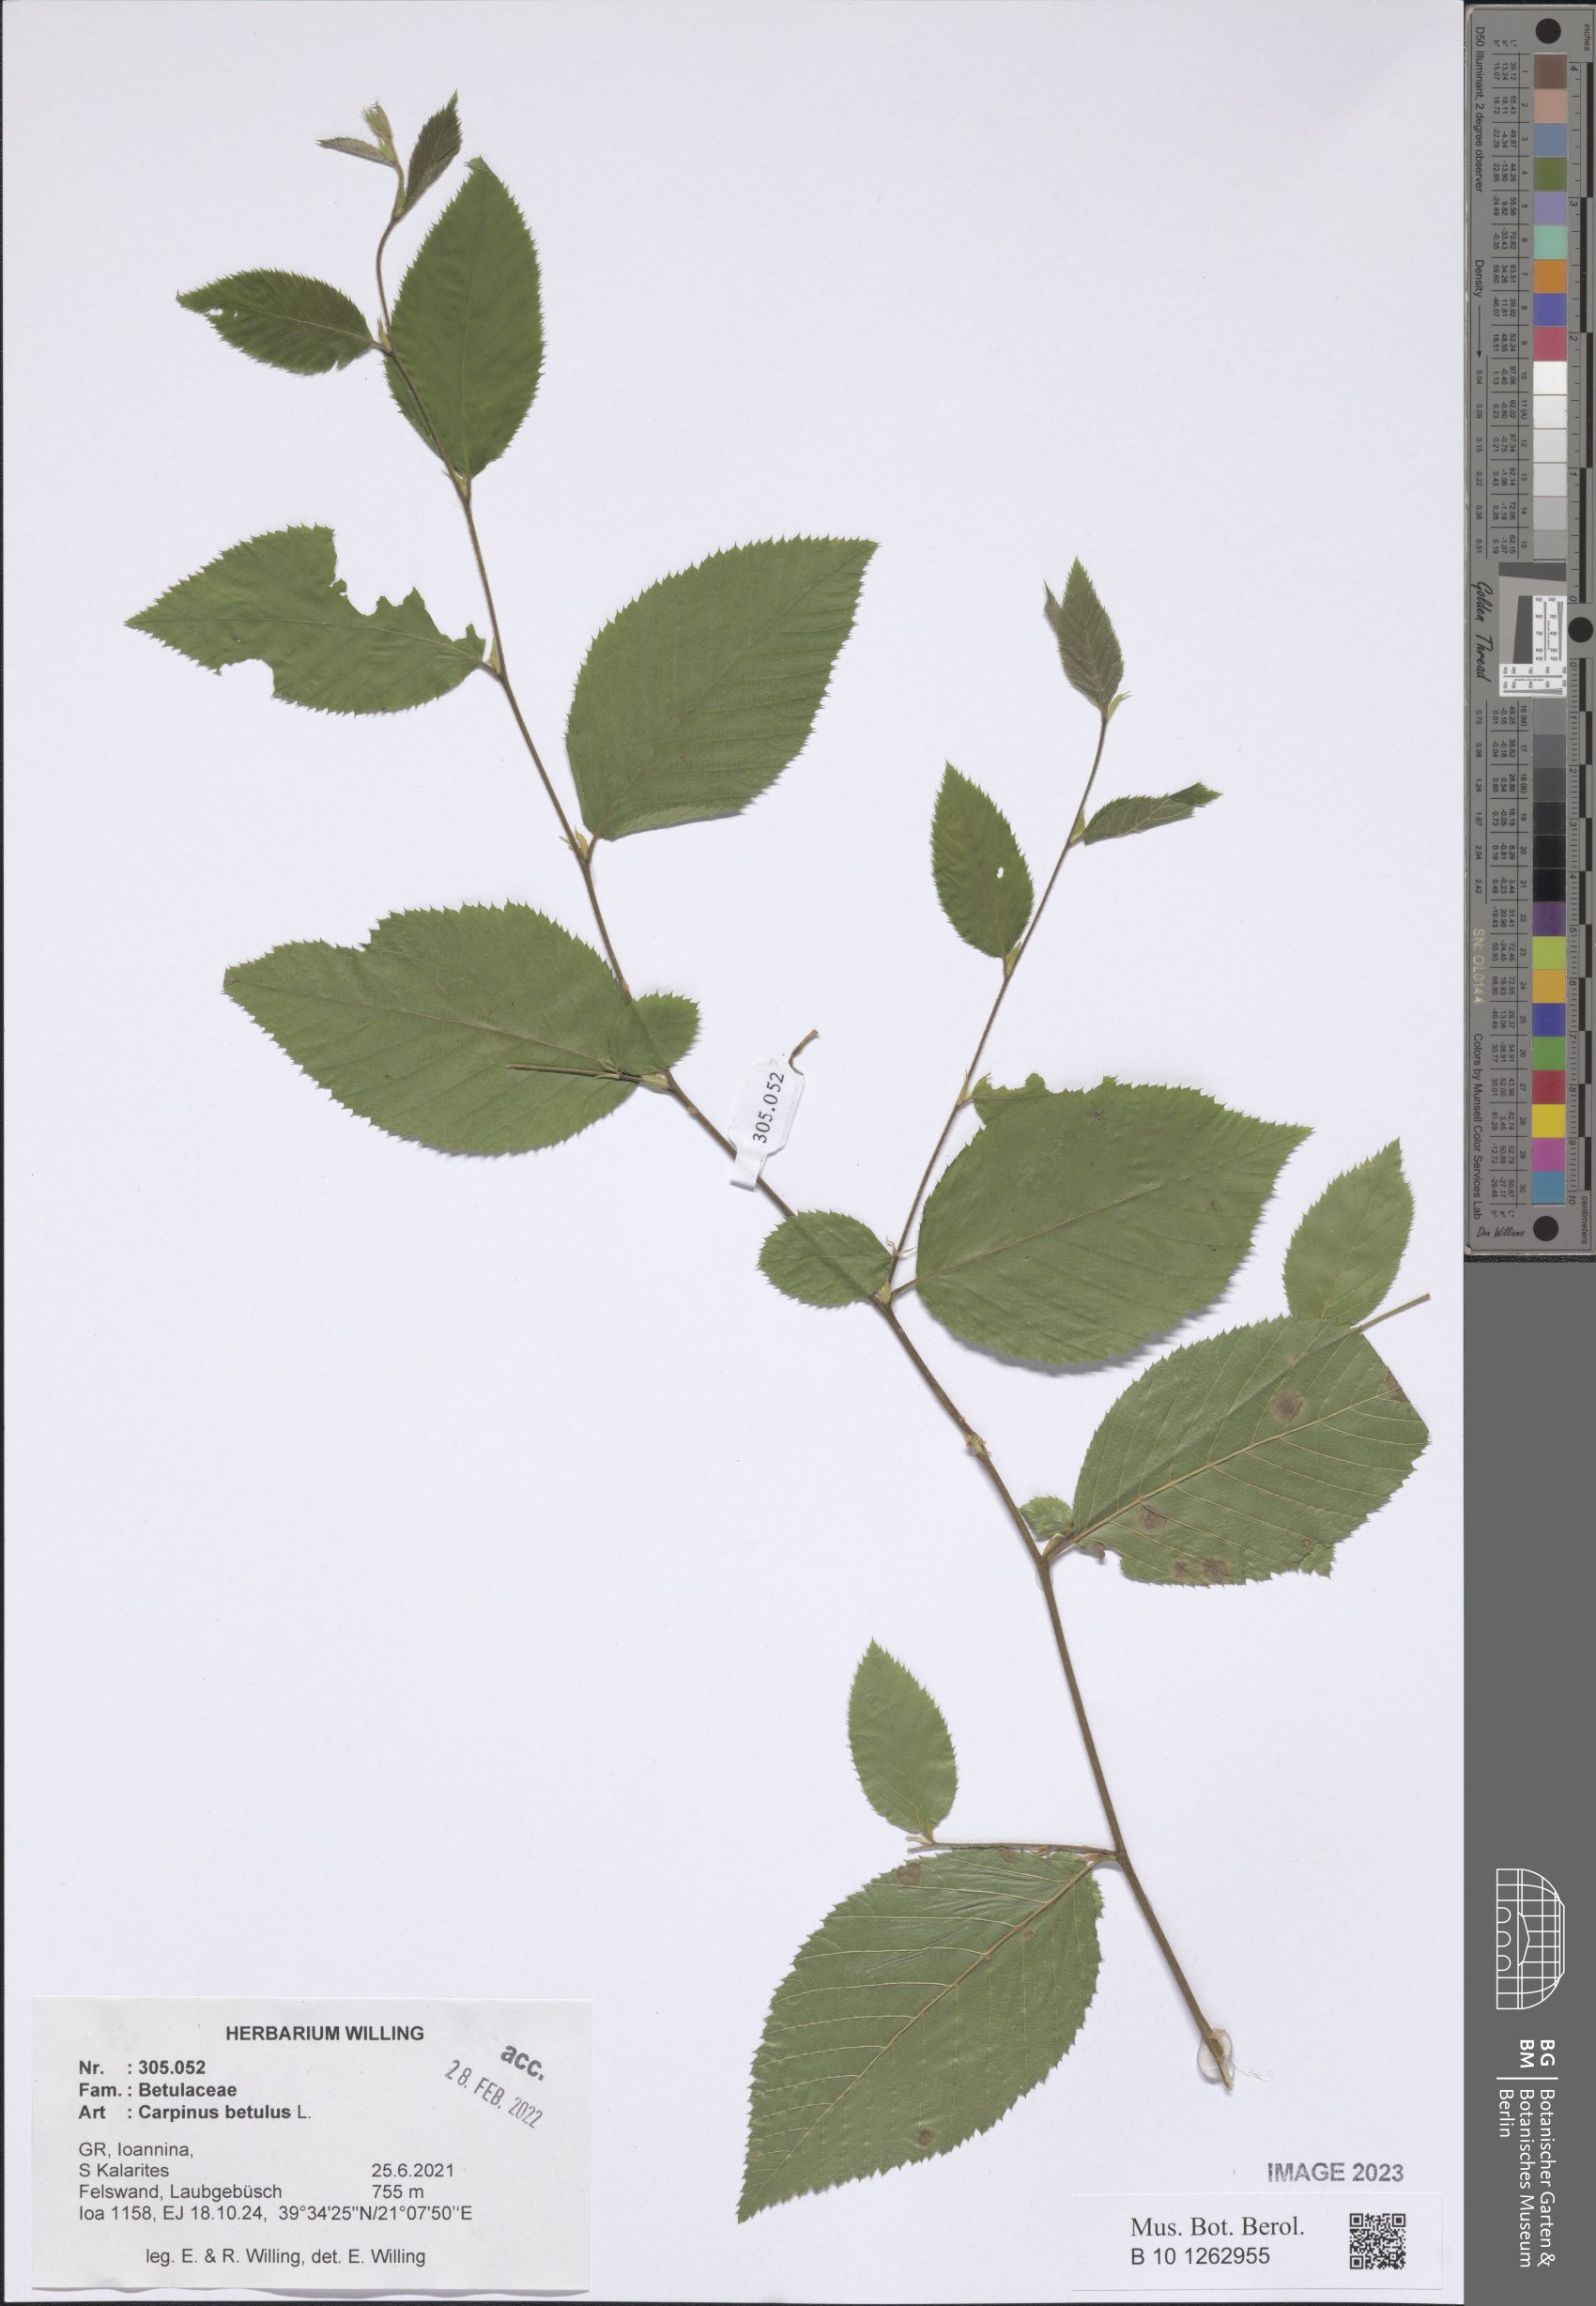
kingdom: Plantae
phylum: Tracheophyta
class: Magnoliopsida
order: Fagales
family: Betulaceae
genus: Carpinus
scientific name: Carpinus betulus
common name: Hornbeam
